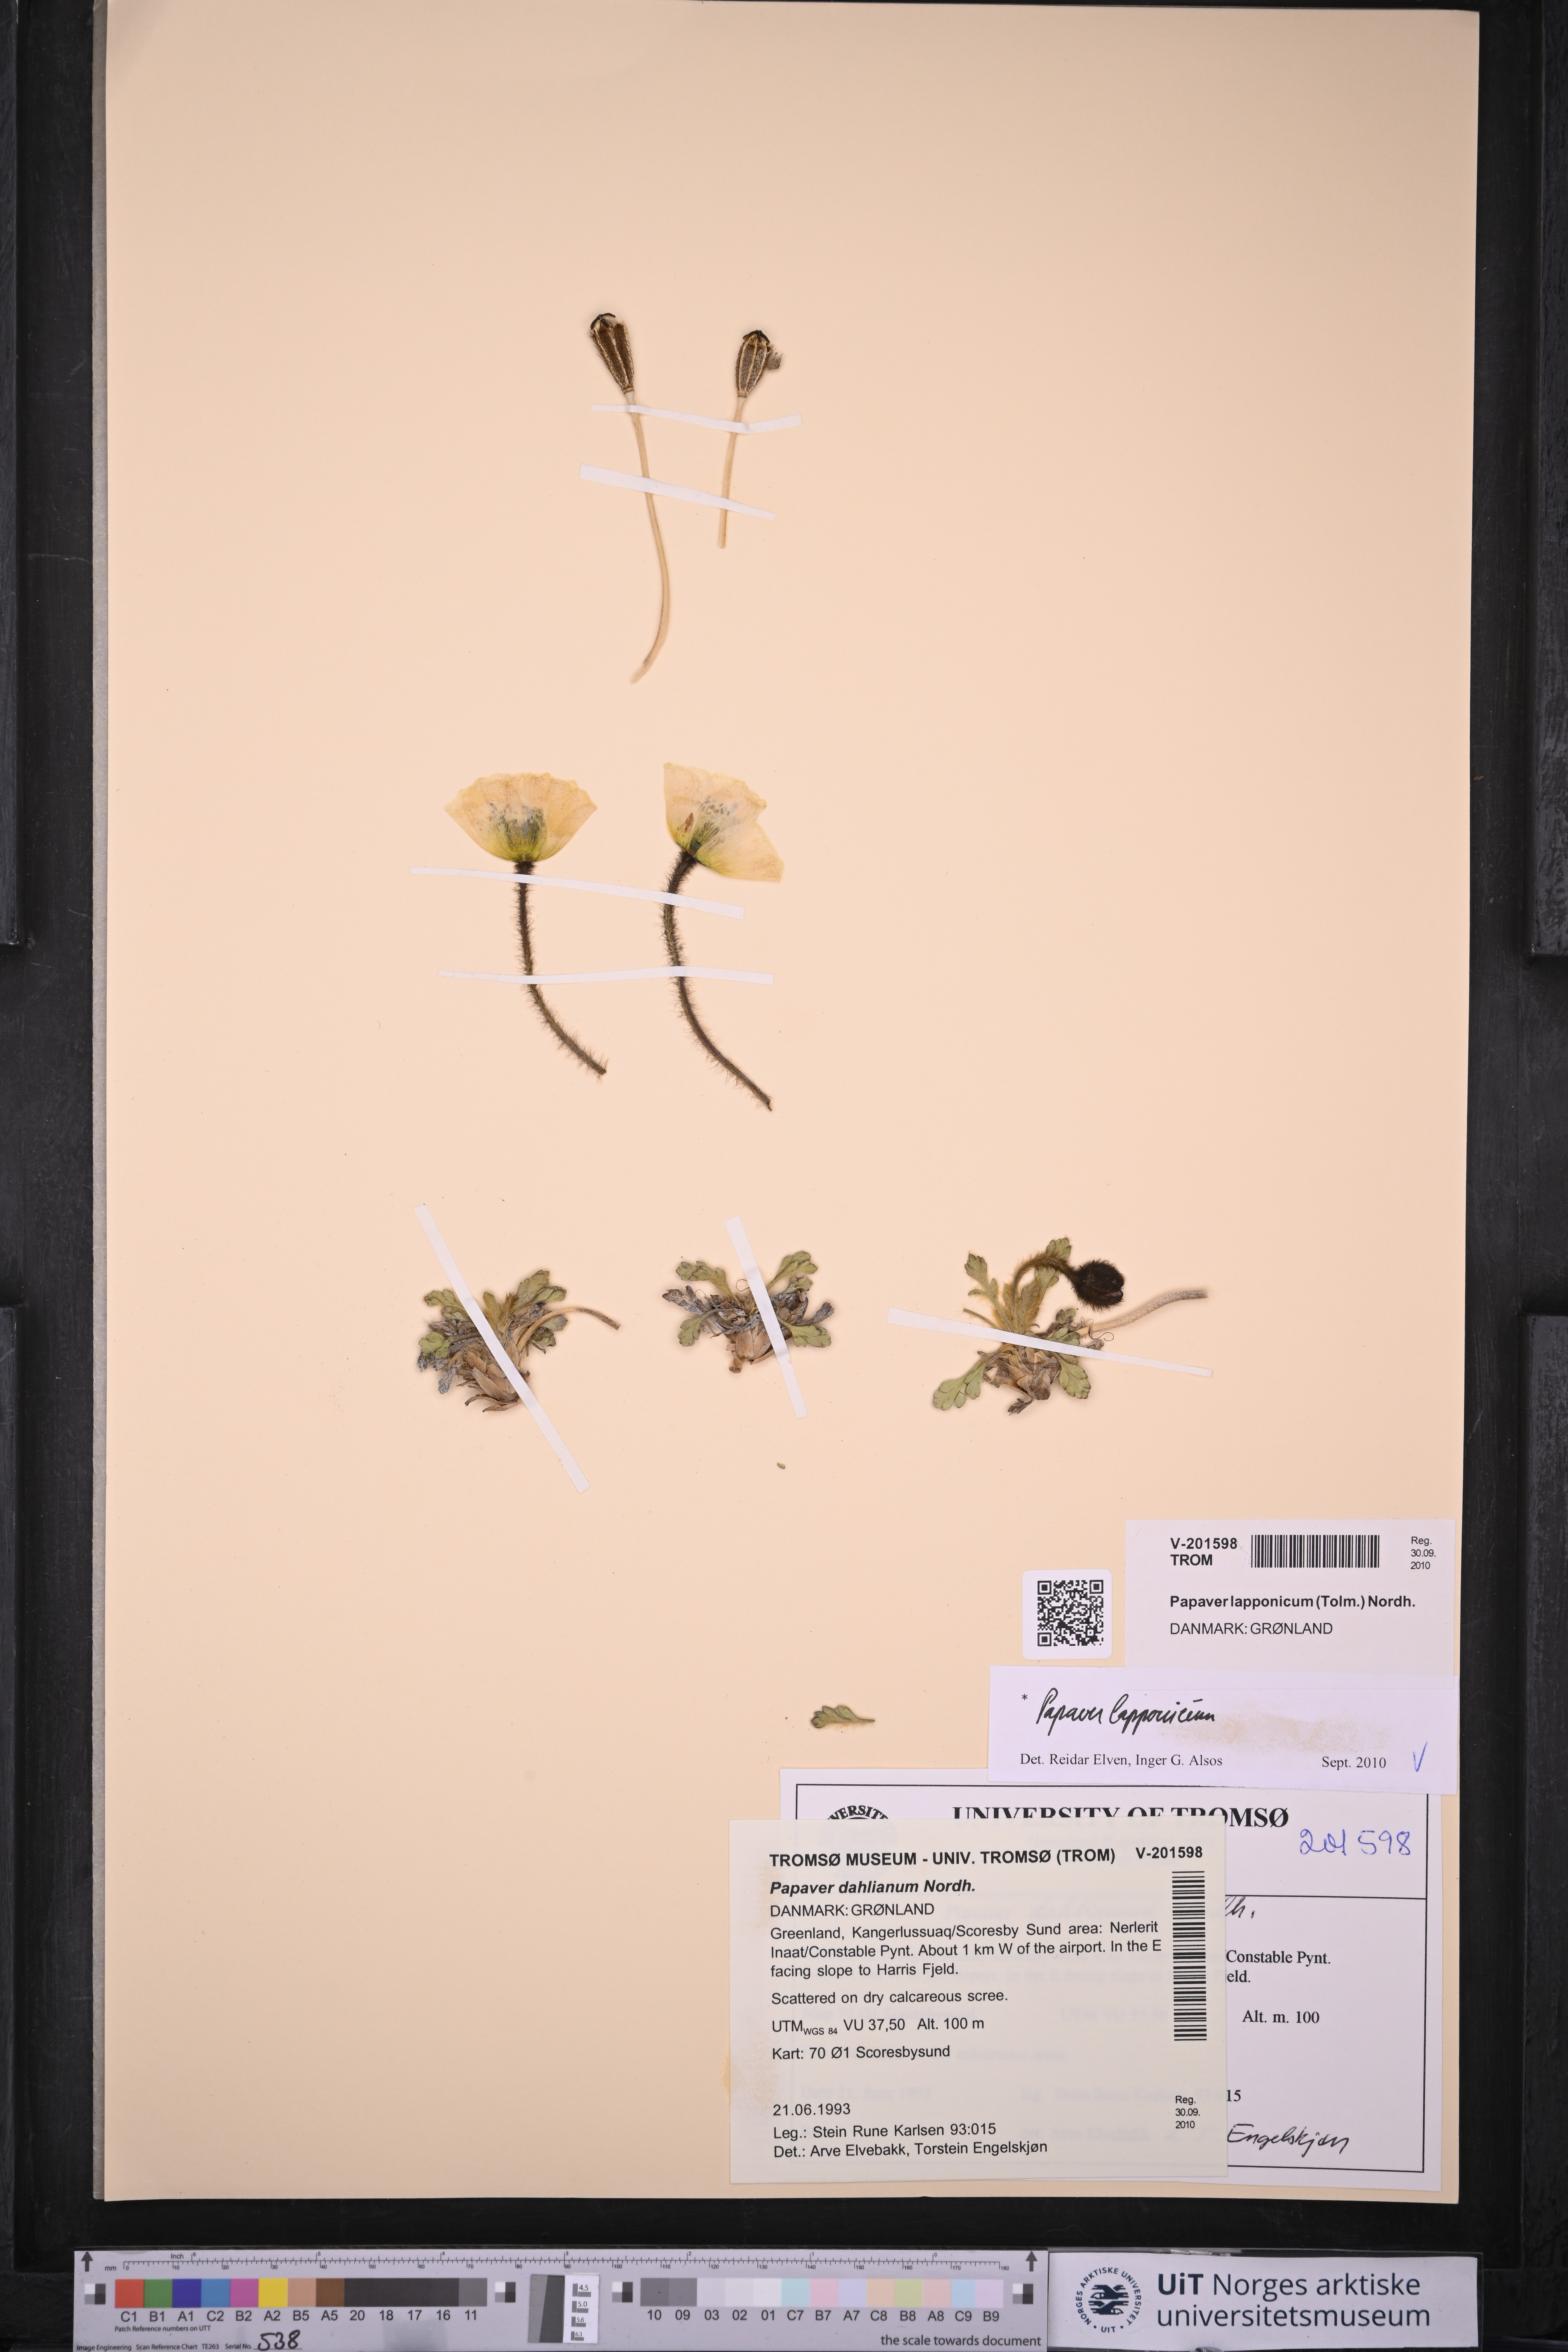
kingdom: Plantae
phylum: Tracheophyta
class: Magnoliopsida
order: Ranunculales
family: Papaveraceae
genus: Papaver
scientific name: Papaver lapponicum
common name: Lapland poppy
